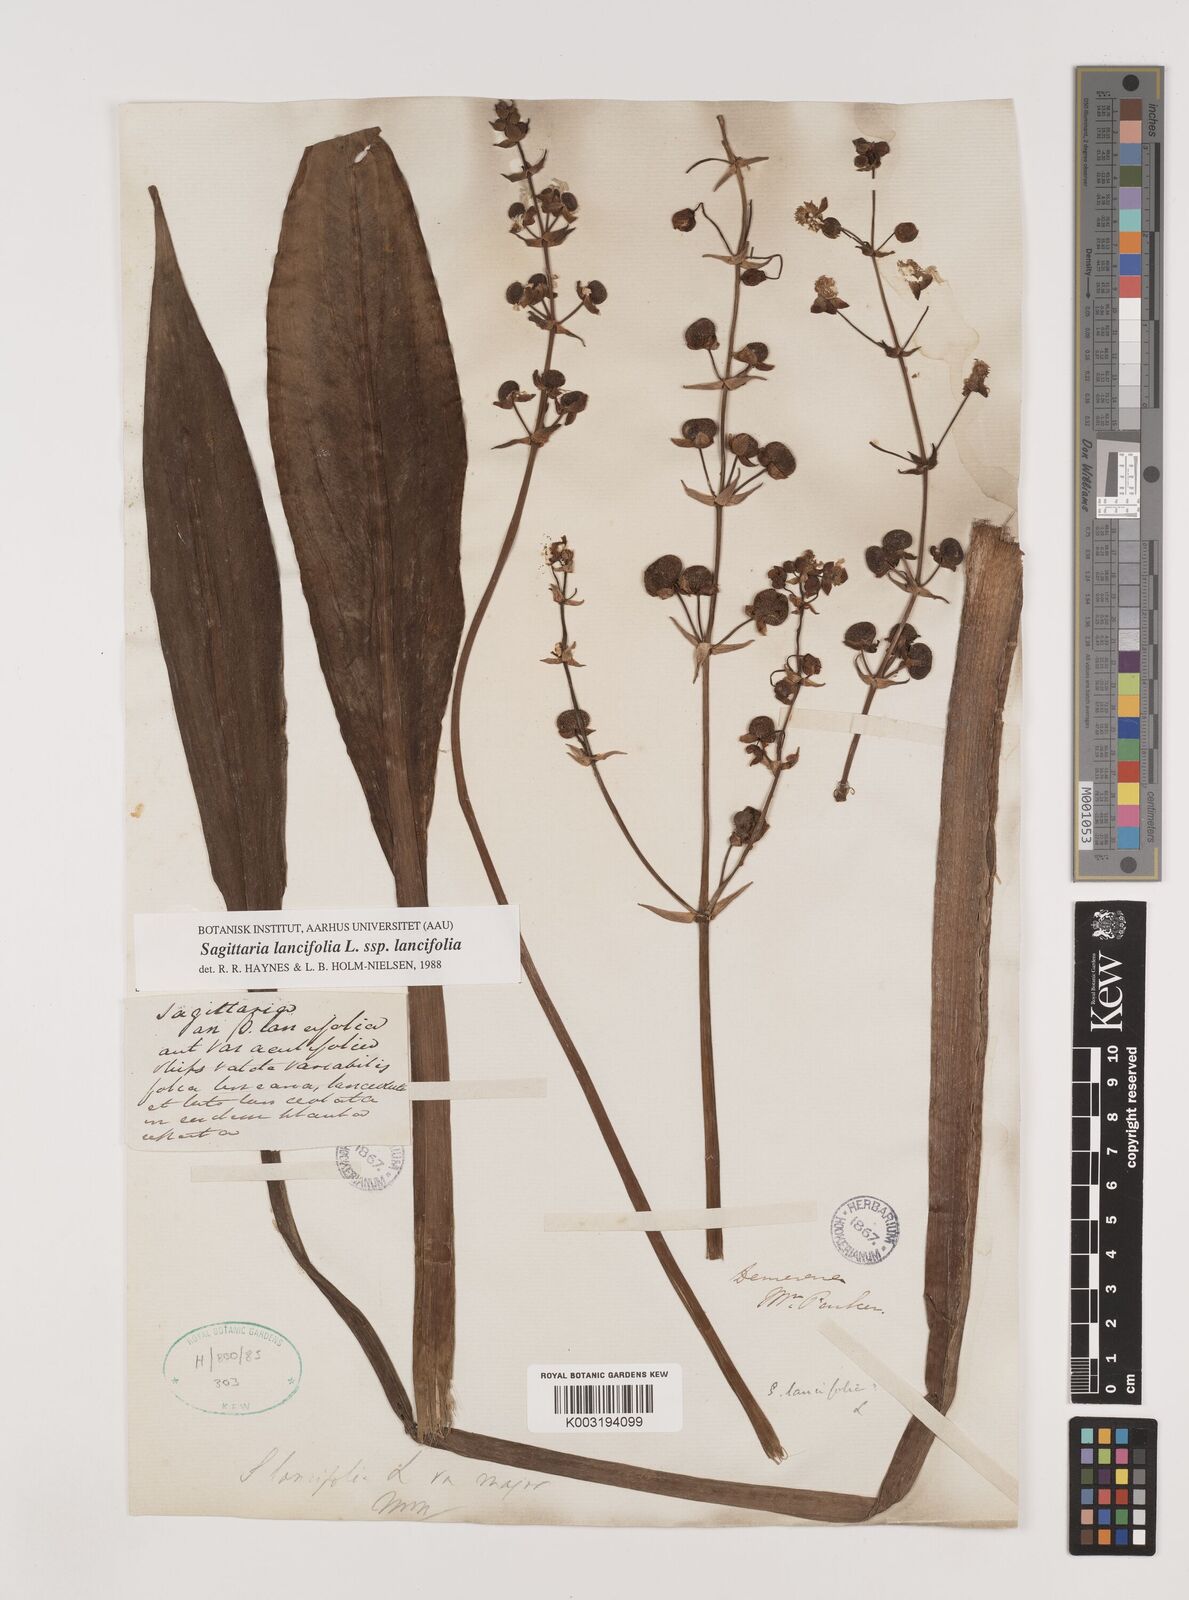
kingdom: Plantae
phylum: Tracheophyta
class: Liliopsida
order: Alismatales
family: Alismataceae
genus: Sagittaria
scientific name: Sagittaria lancifolia
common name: Lance-leaf arrowhead
